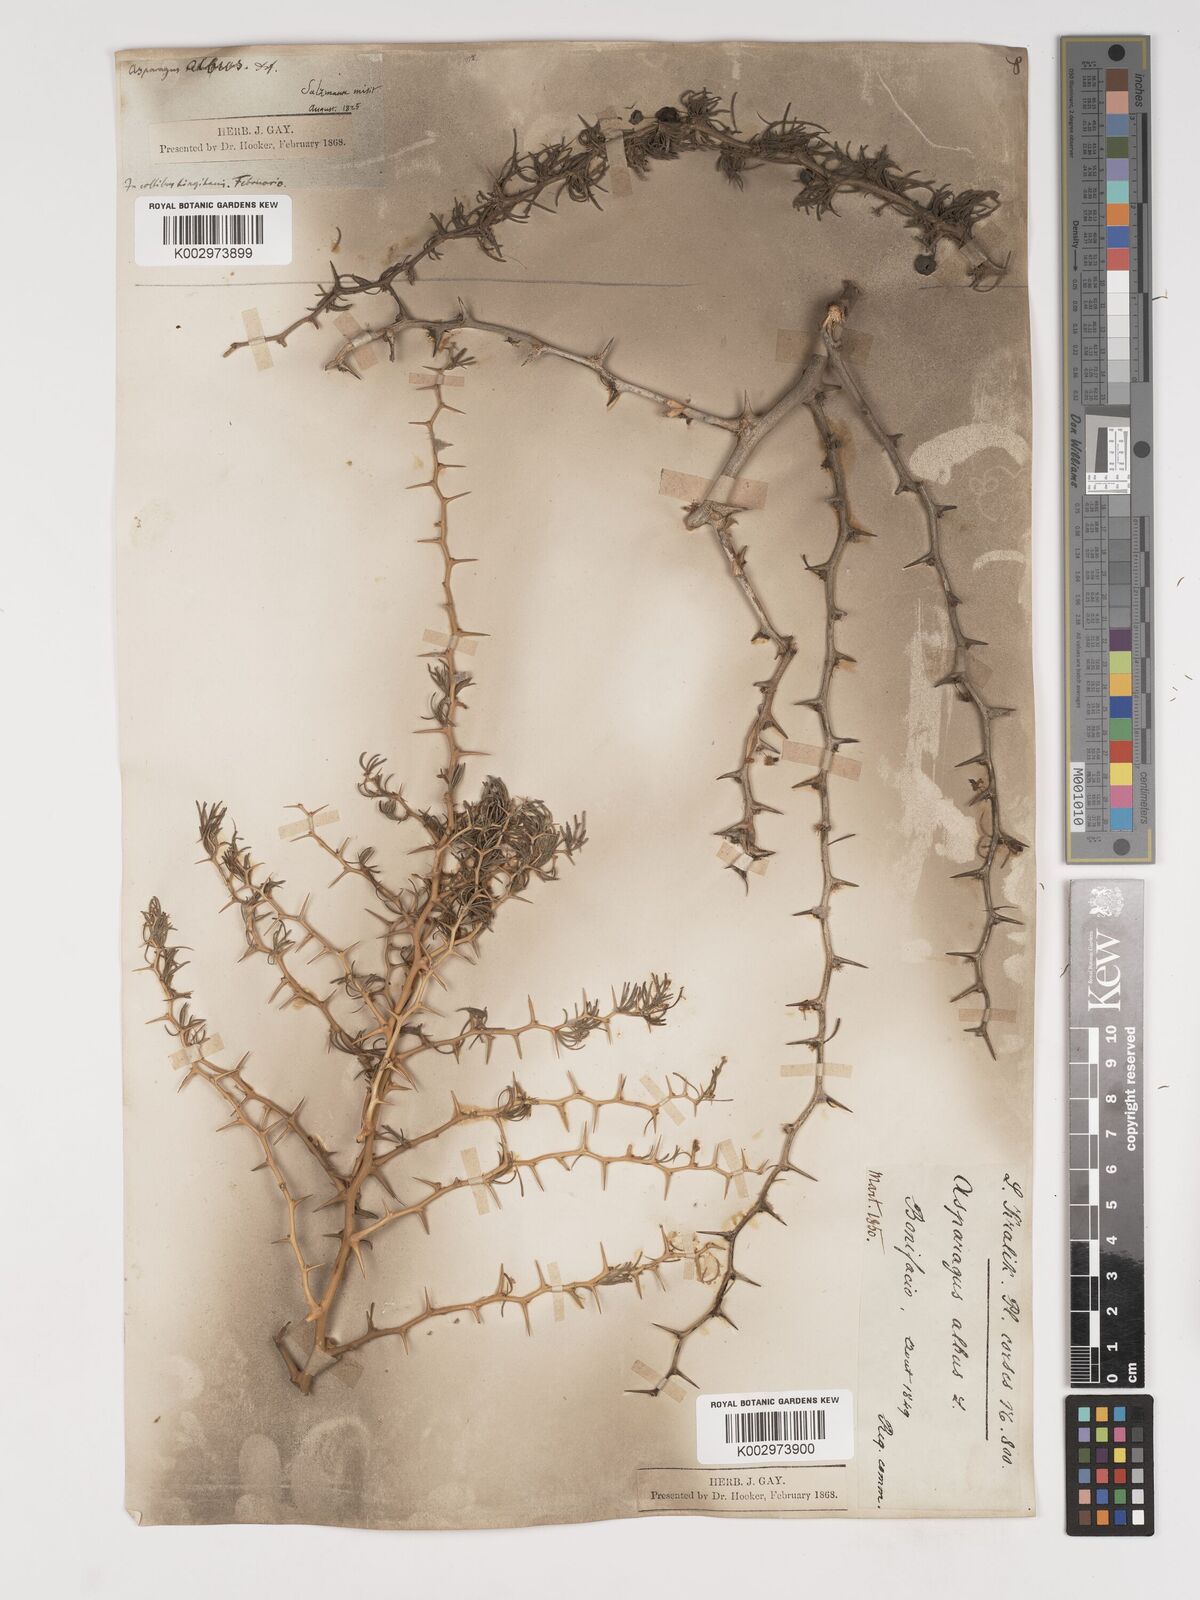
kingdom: Plantae
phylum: Tracheophyta
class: Liliopsida
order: Asparagales
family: Asparagaceae
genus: Asparagus
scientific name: Asparagus albus
